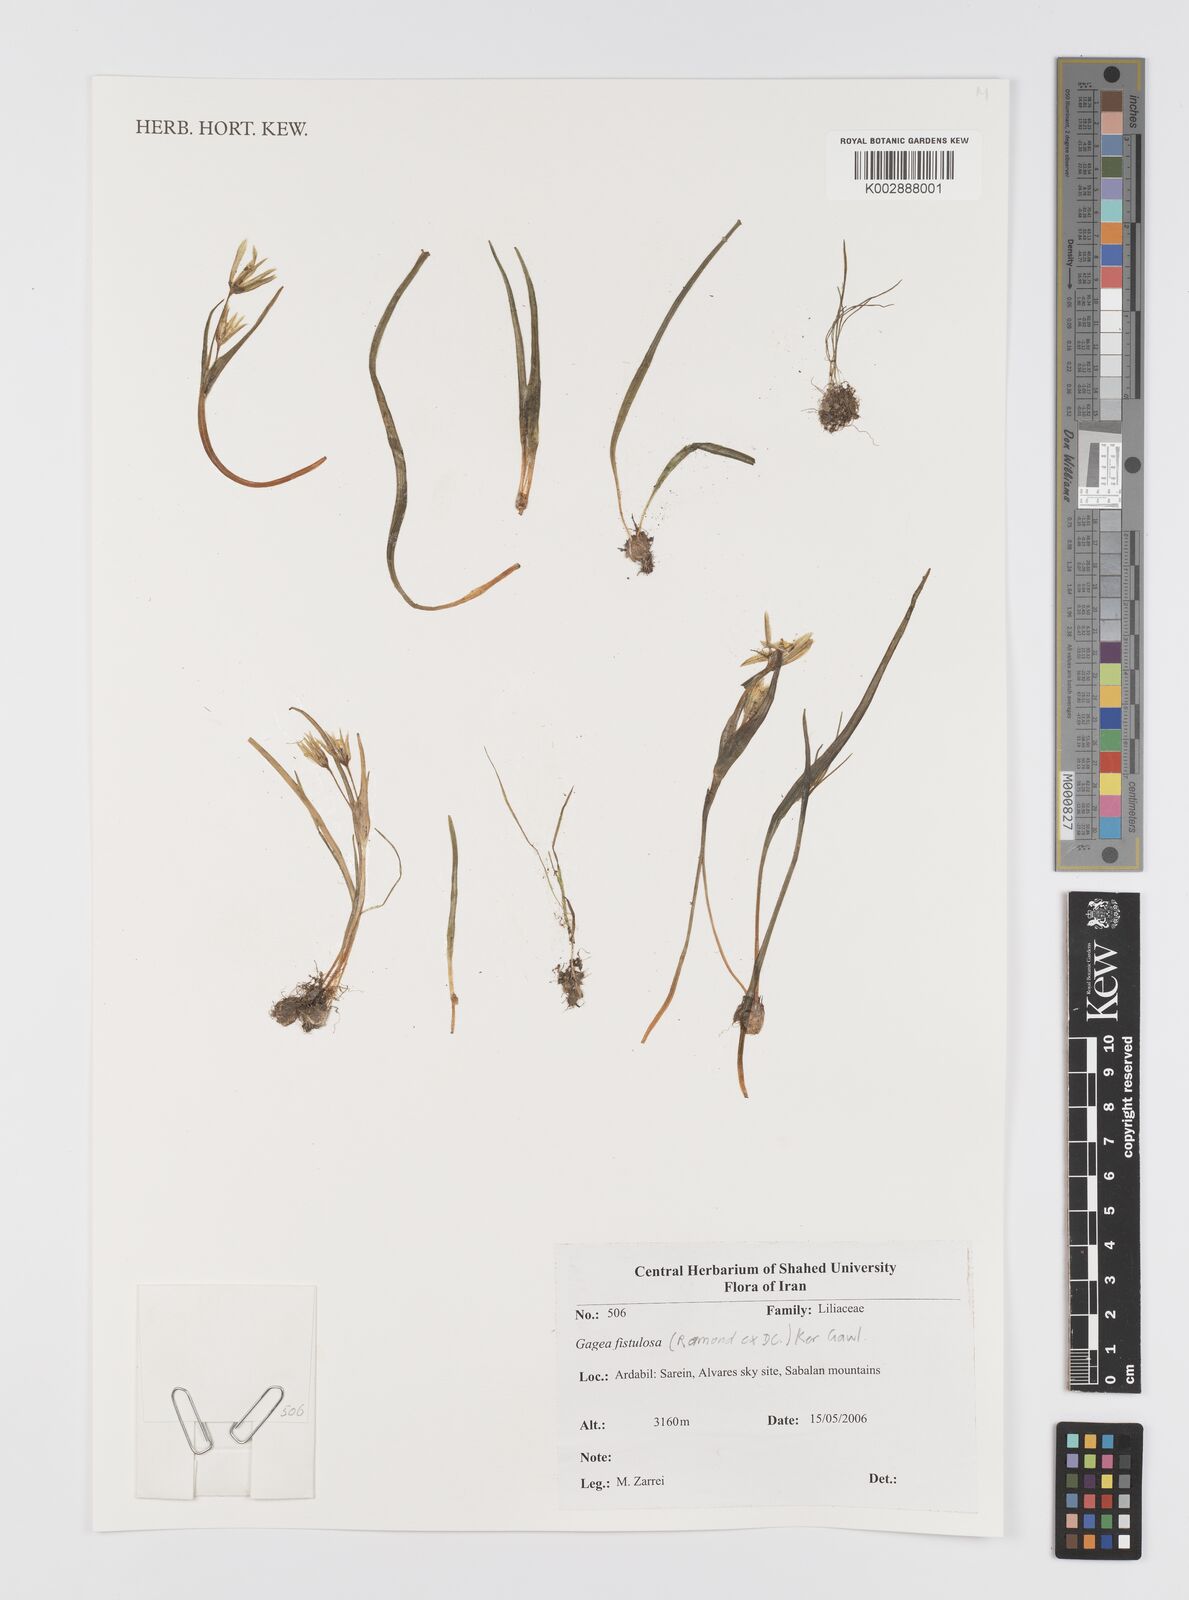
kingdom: Plantae
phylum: Tracheophyta
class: Liliopsida
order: Liliales
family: Liliaceae
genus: Gagea
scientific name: Gagea bohemica
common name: Early star-of-bethlehem
